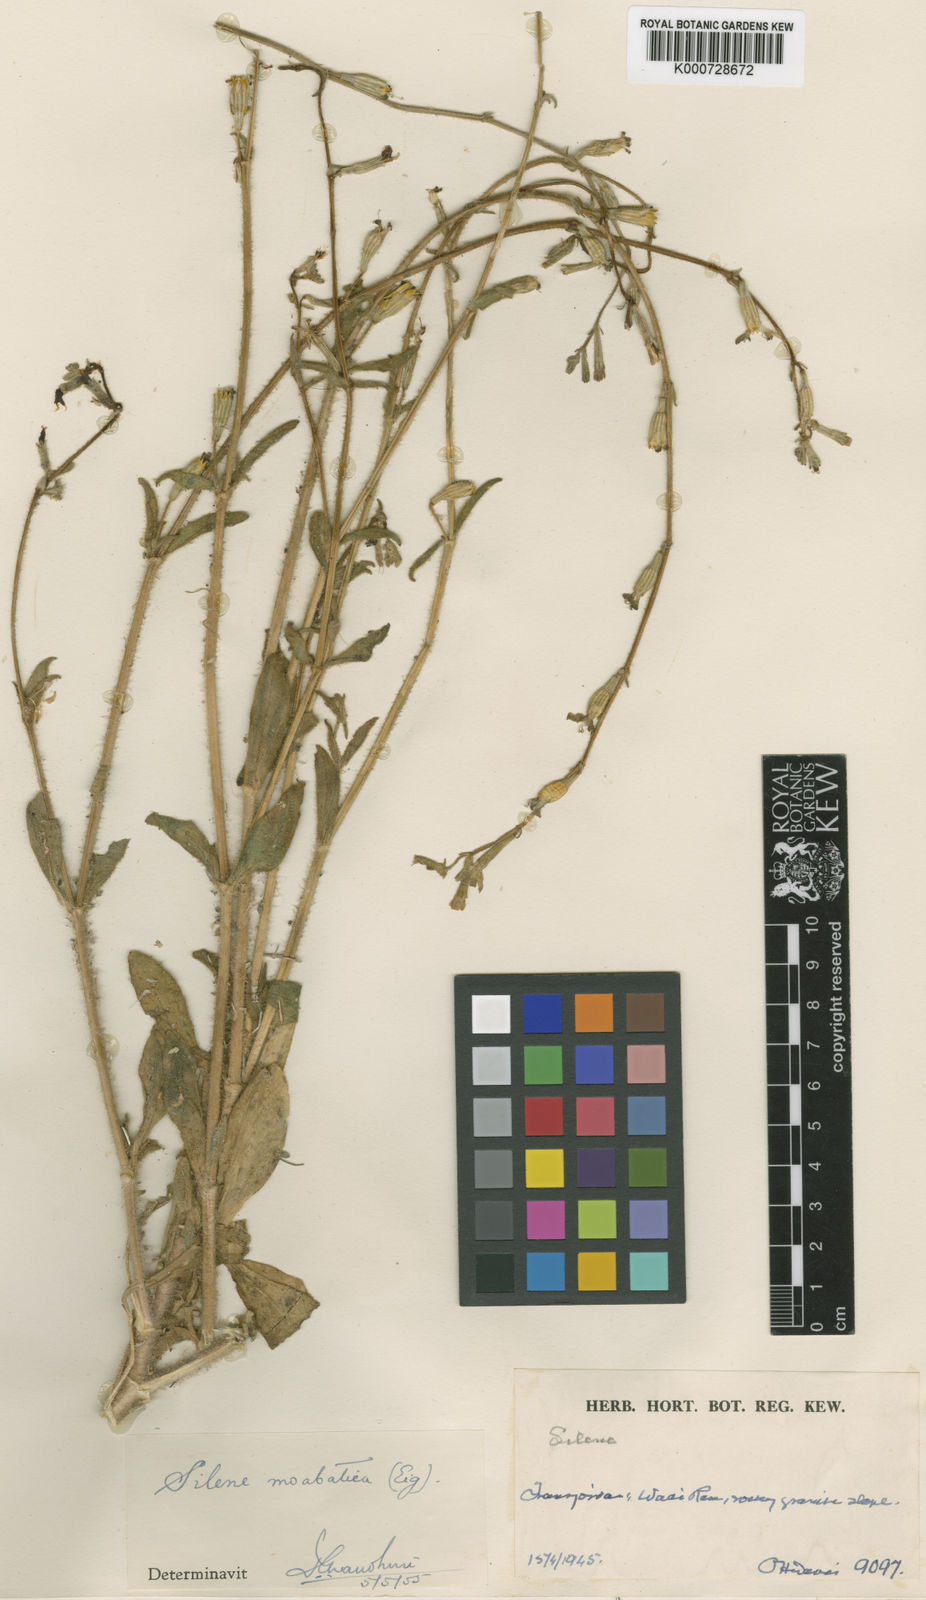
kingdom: Plantae
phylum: Tracheophyta
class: Magnoliopsida
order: Caryophyllales
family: Caryophyllaceae
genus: Silene
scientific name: Silene moabitica
